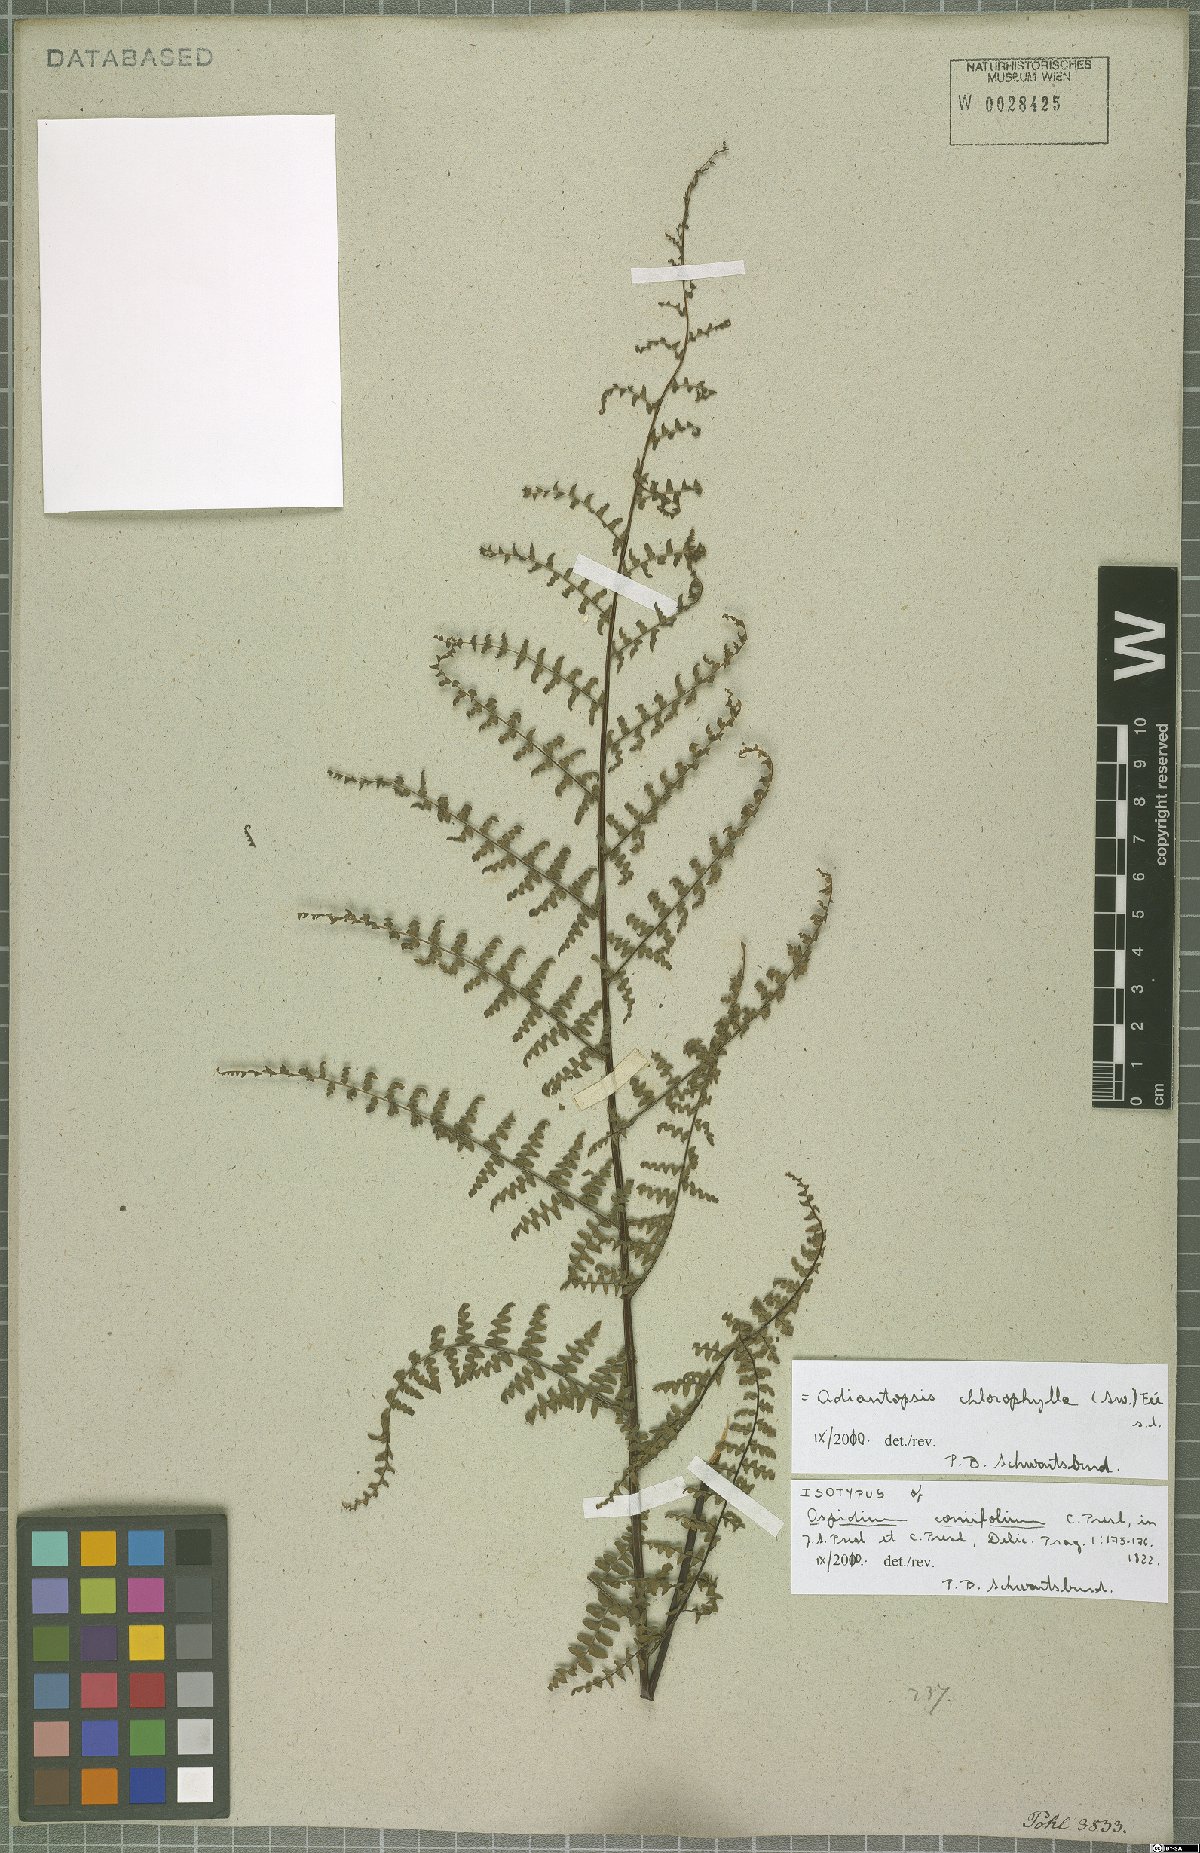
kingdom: Plantae
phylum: Tracheophyta
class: Polypodiopsida
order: Polypodiales
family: Pteridaceae
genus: Adiantopsis
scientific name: Adiantopsis chlorophylla
